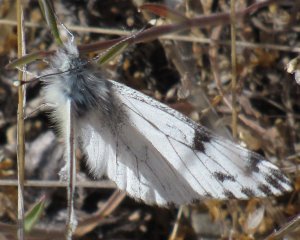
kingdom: Animalia
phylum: Arthropoda
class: Insecta
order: Lepidoptera
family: Pieridae
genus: Pontia
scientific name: Pontia sisymbrii
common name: Spring White
